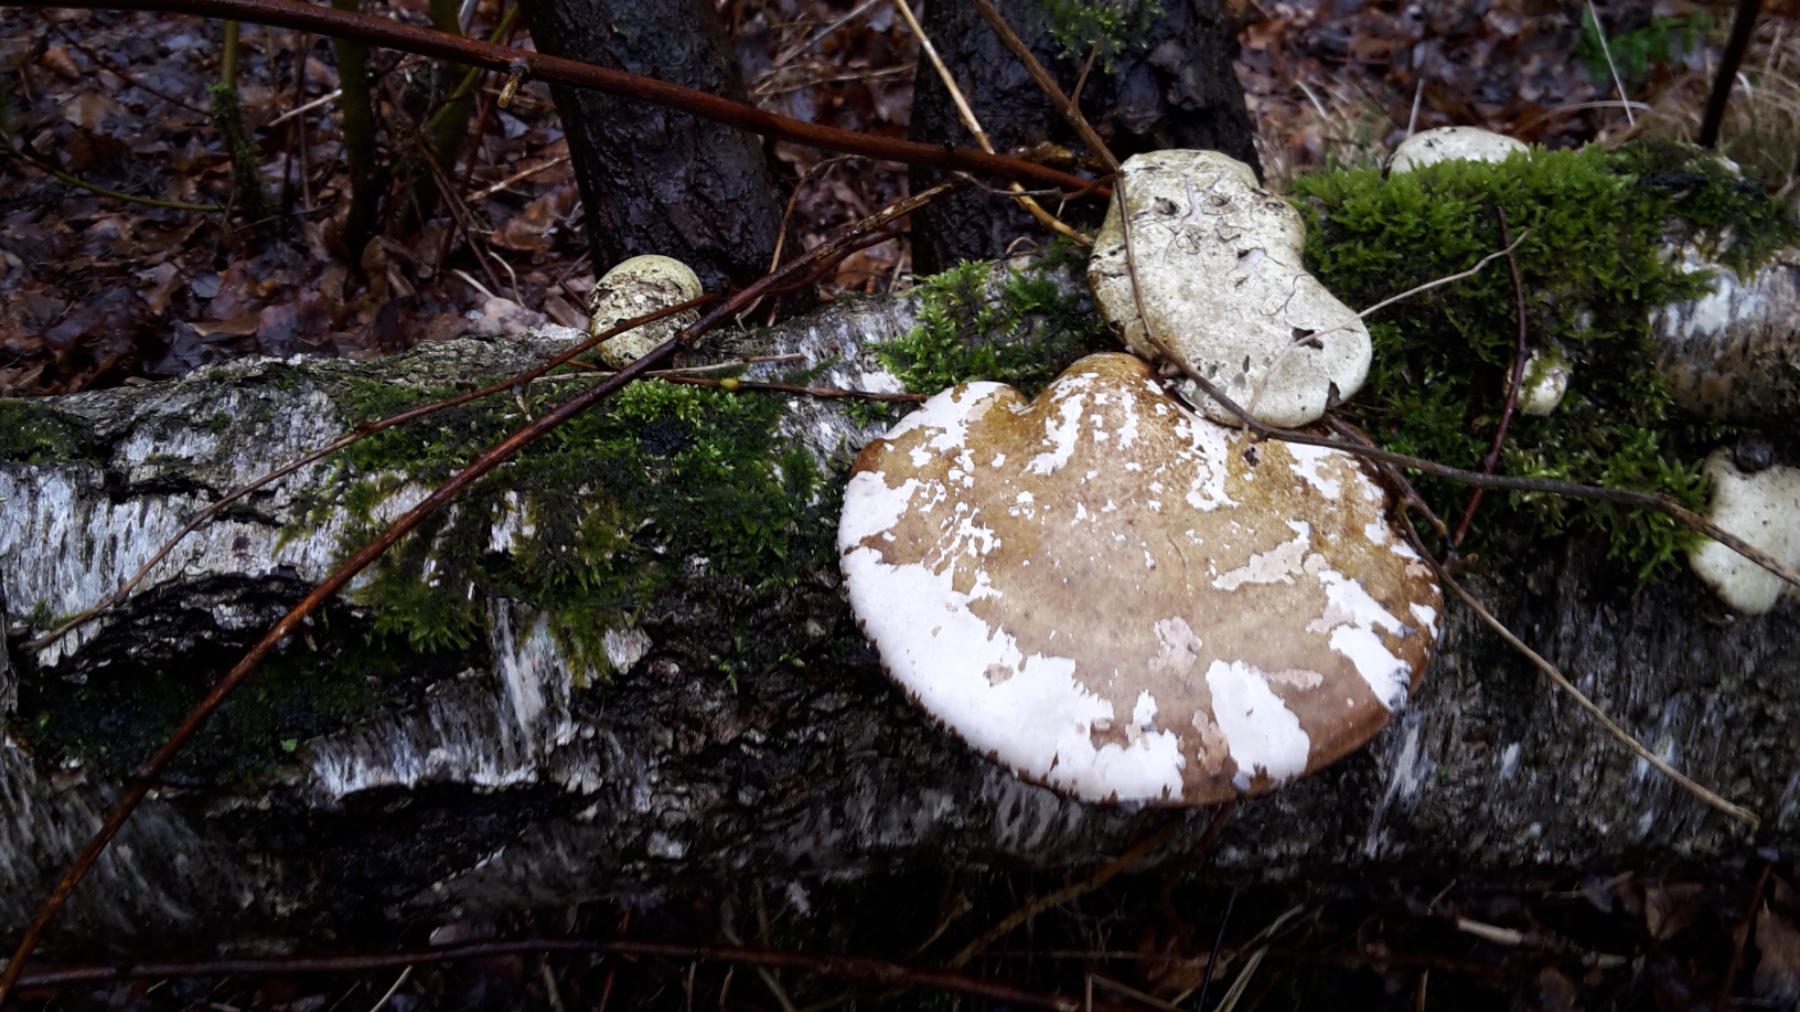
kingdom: Fungi
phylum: Basidiomycota
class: Agaricomycetes
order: Polyporales
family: Fomitopsidaceae
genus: Fomitopsis
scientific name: Fomitopsis betulina
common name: birkeporesvamp
